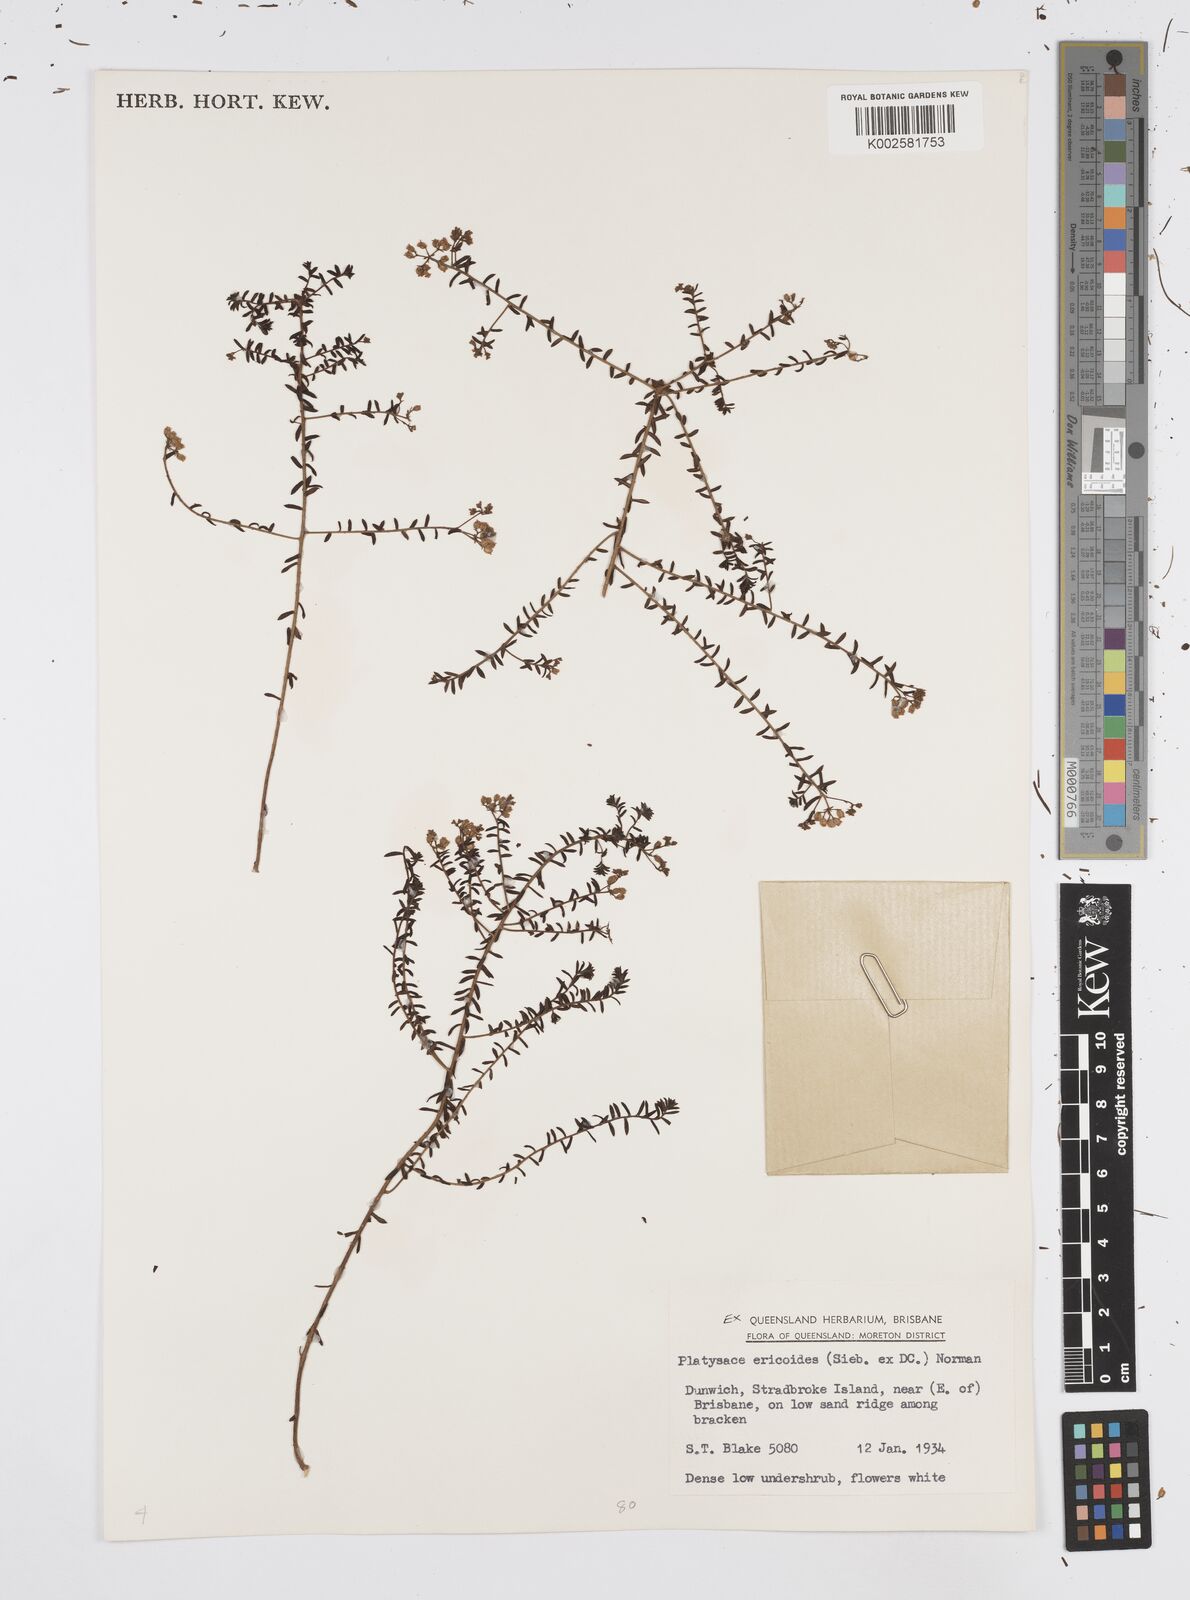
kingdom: Plantae
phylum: Tracheophyta
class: Magnoliopsida
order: Apiales
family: Apiaceae
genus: Platysace
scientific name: Platysace ericoides
